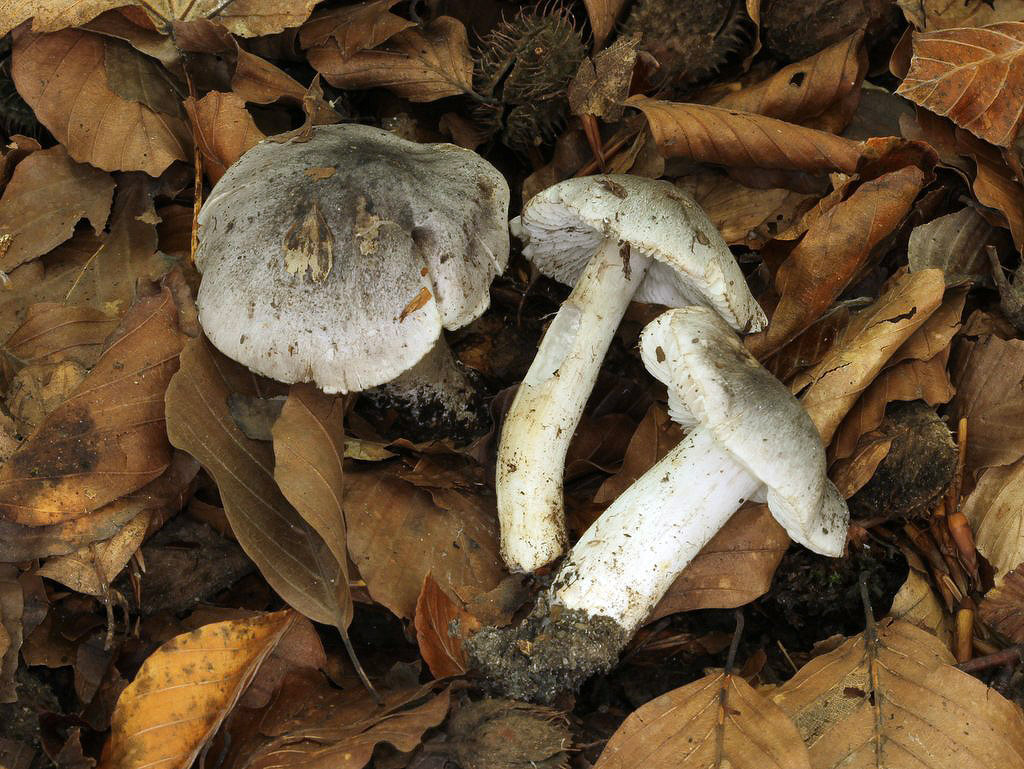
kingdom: Fungi
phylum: Basidiomycota
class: Agaricomycetes
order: Agaricales
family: Tricholomataceae
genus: Tricholoma
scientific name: Tricholoma sciodes
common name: stribet ridderhat
